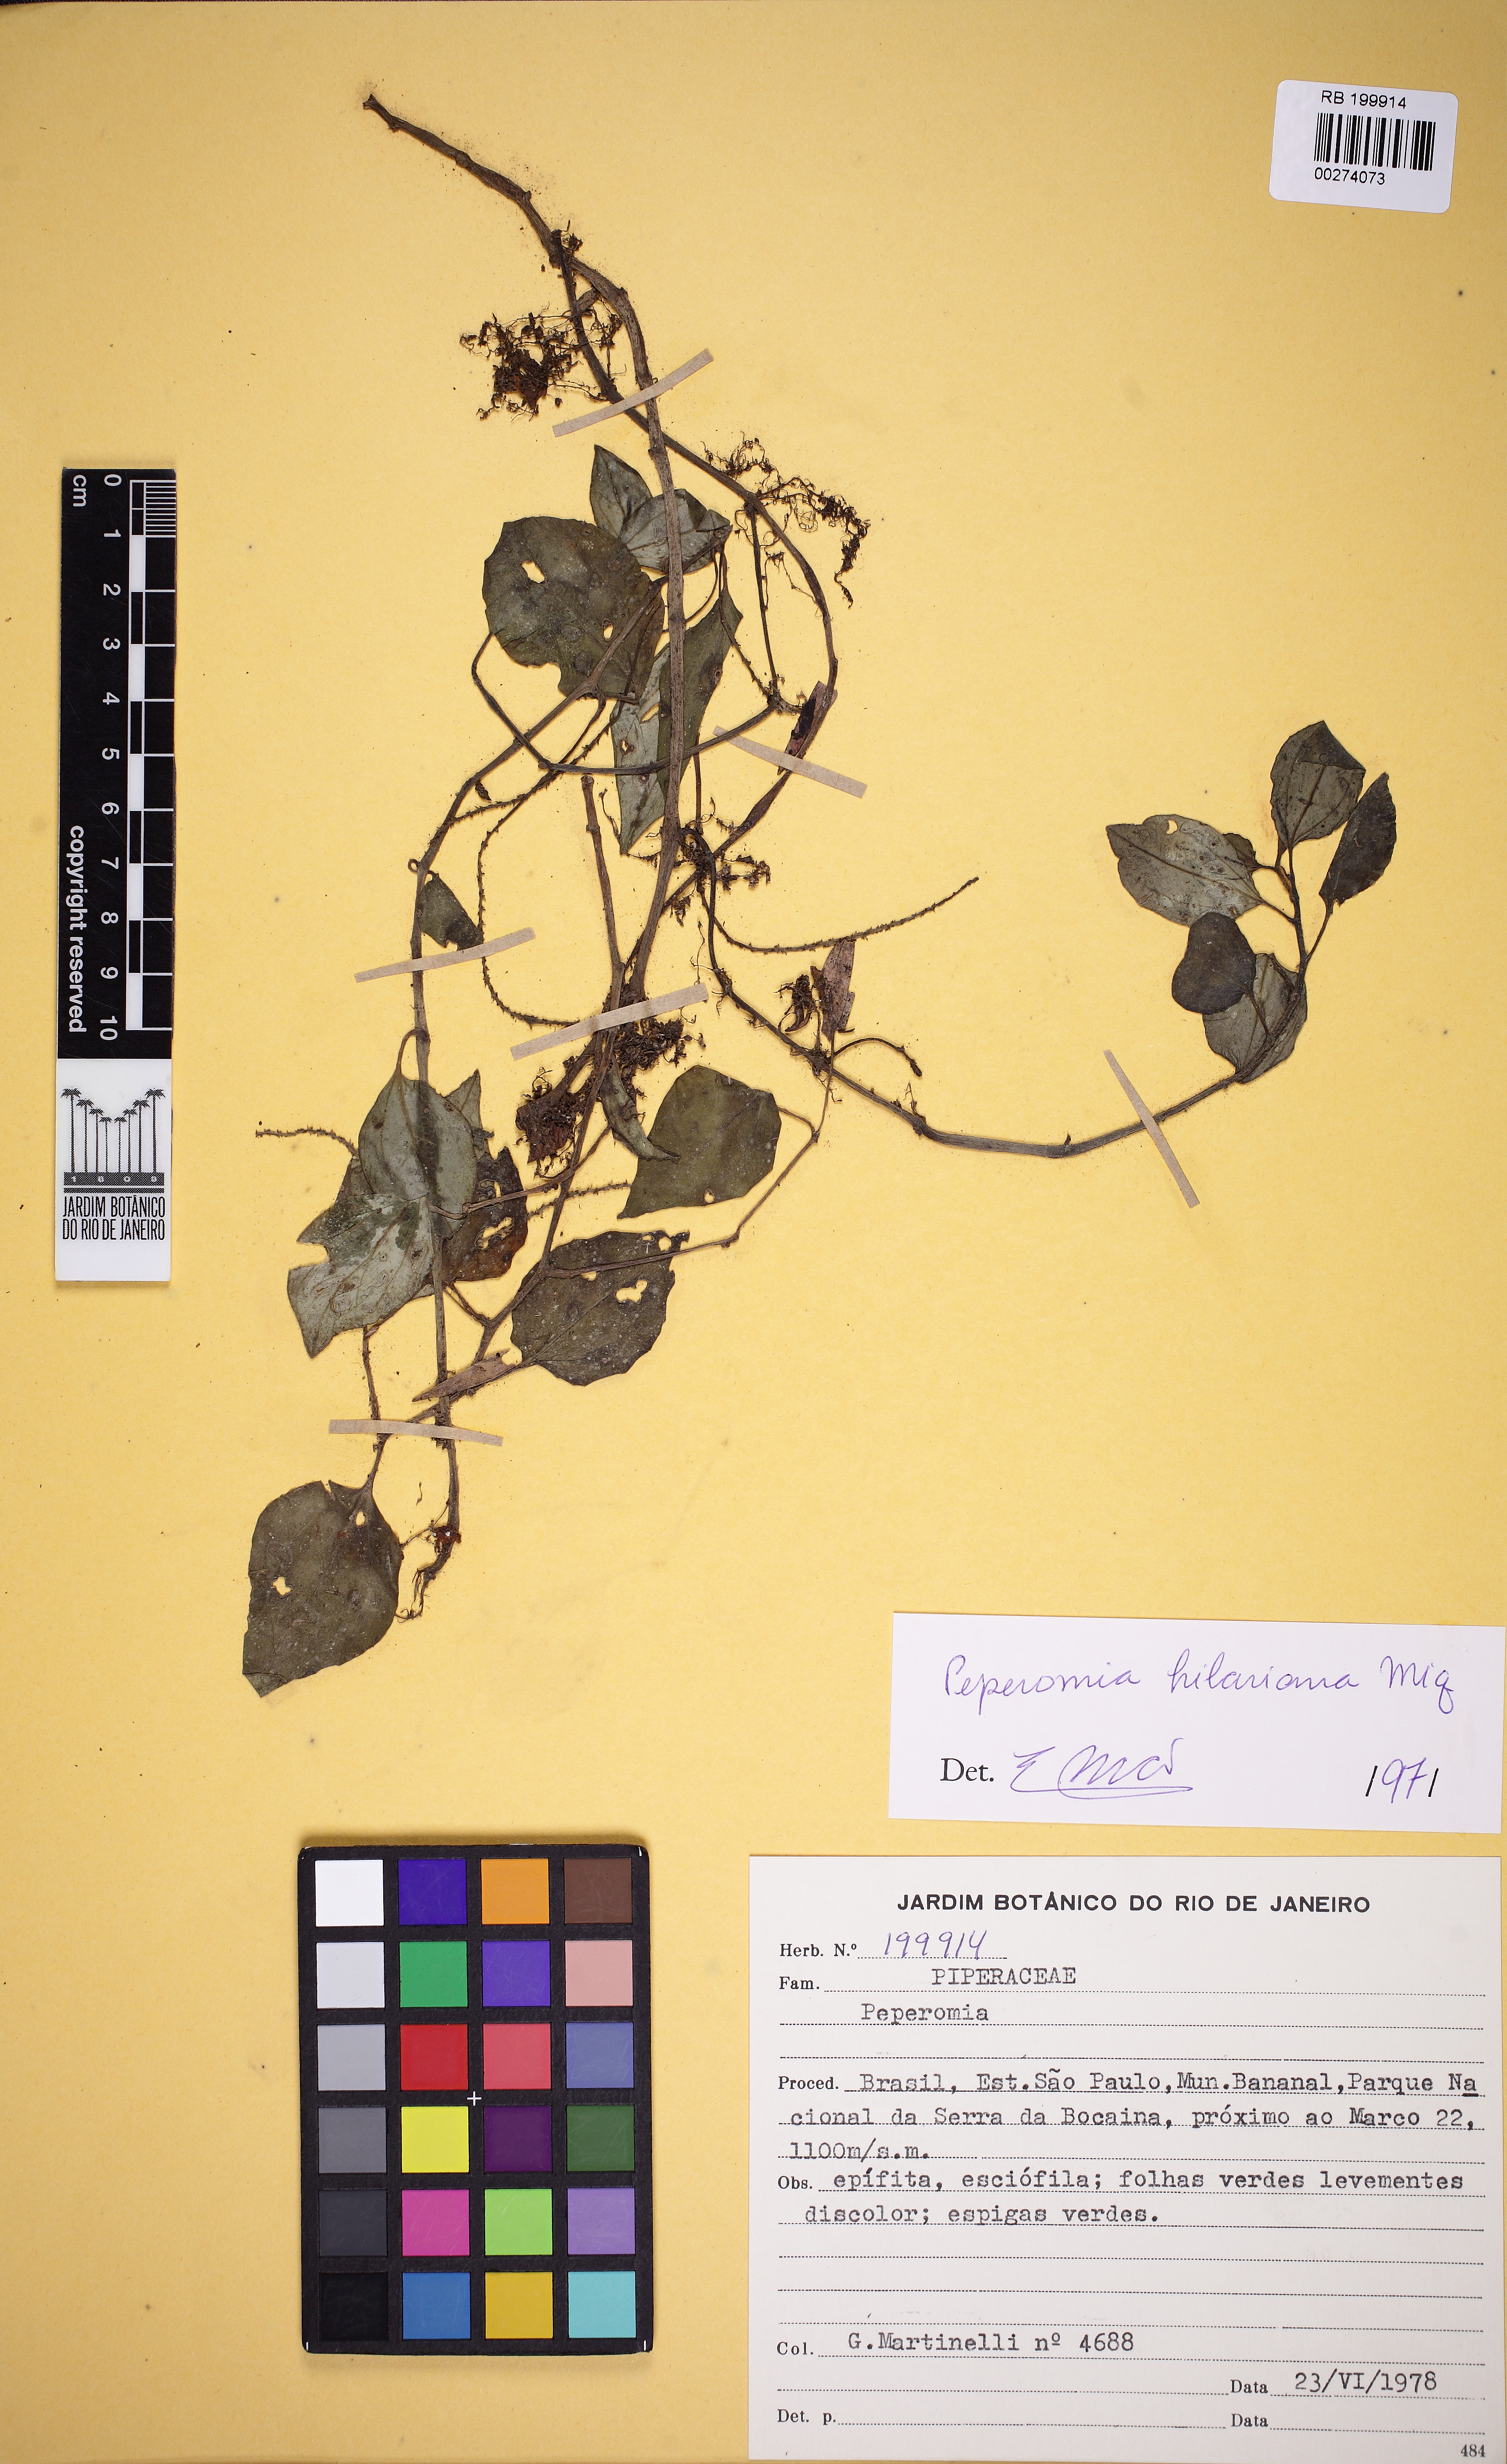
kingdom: Plantae
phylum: Tracheophyta
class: Magnoliopsida
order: Piperales
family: Piperaceae
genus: Peperomia
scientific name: Peperomia hilariana
